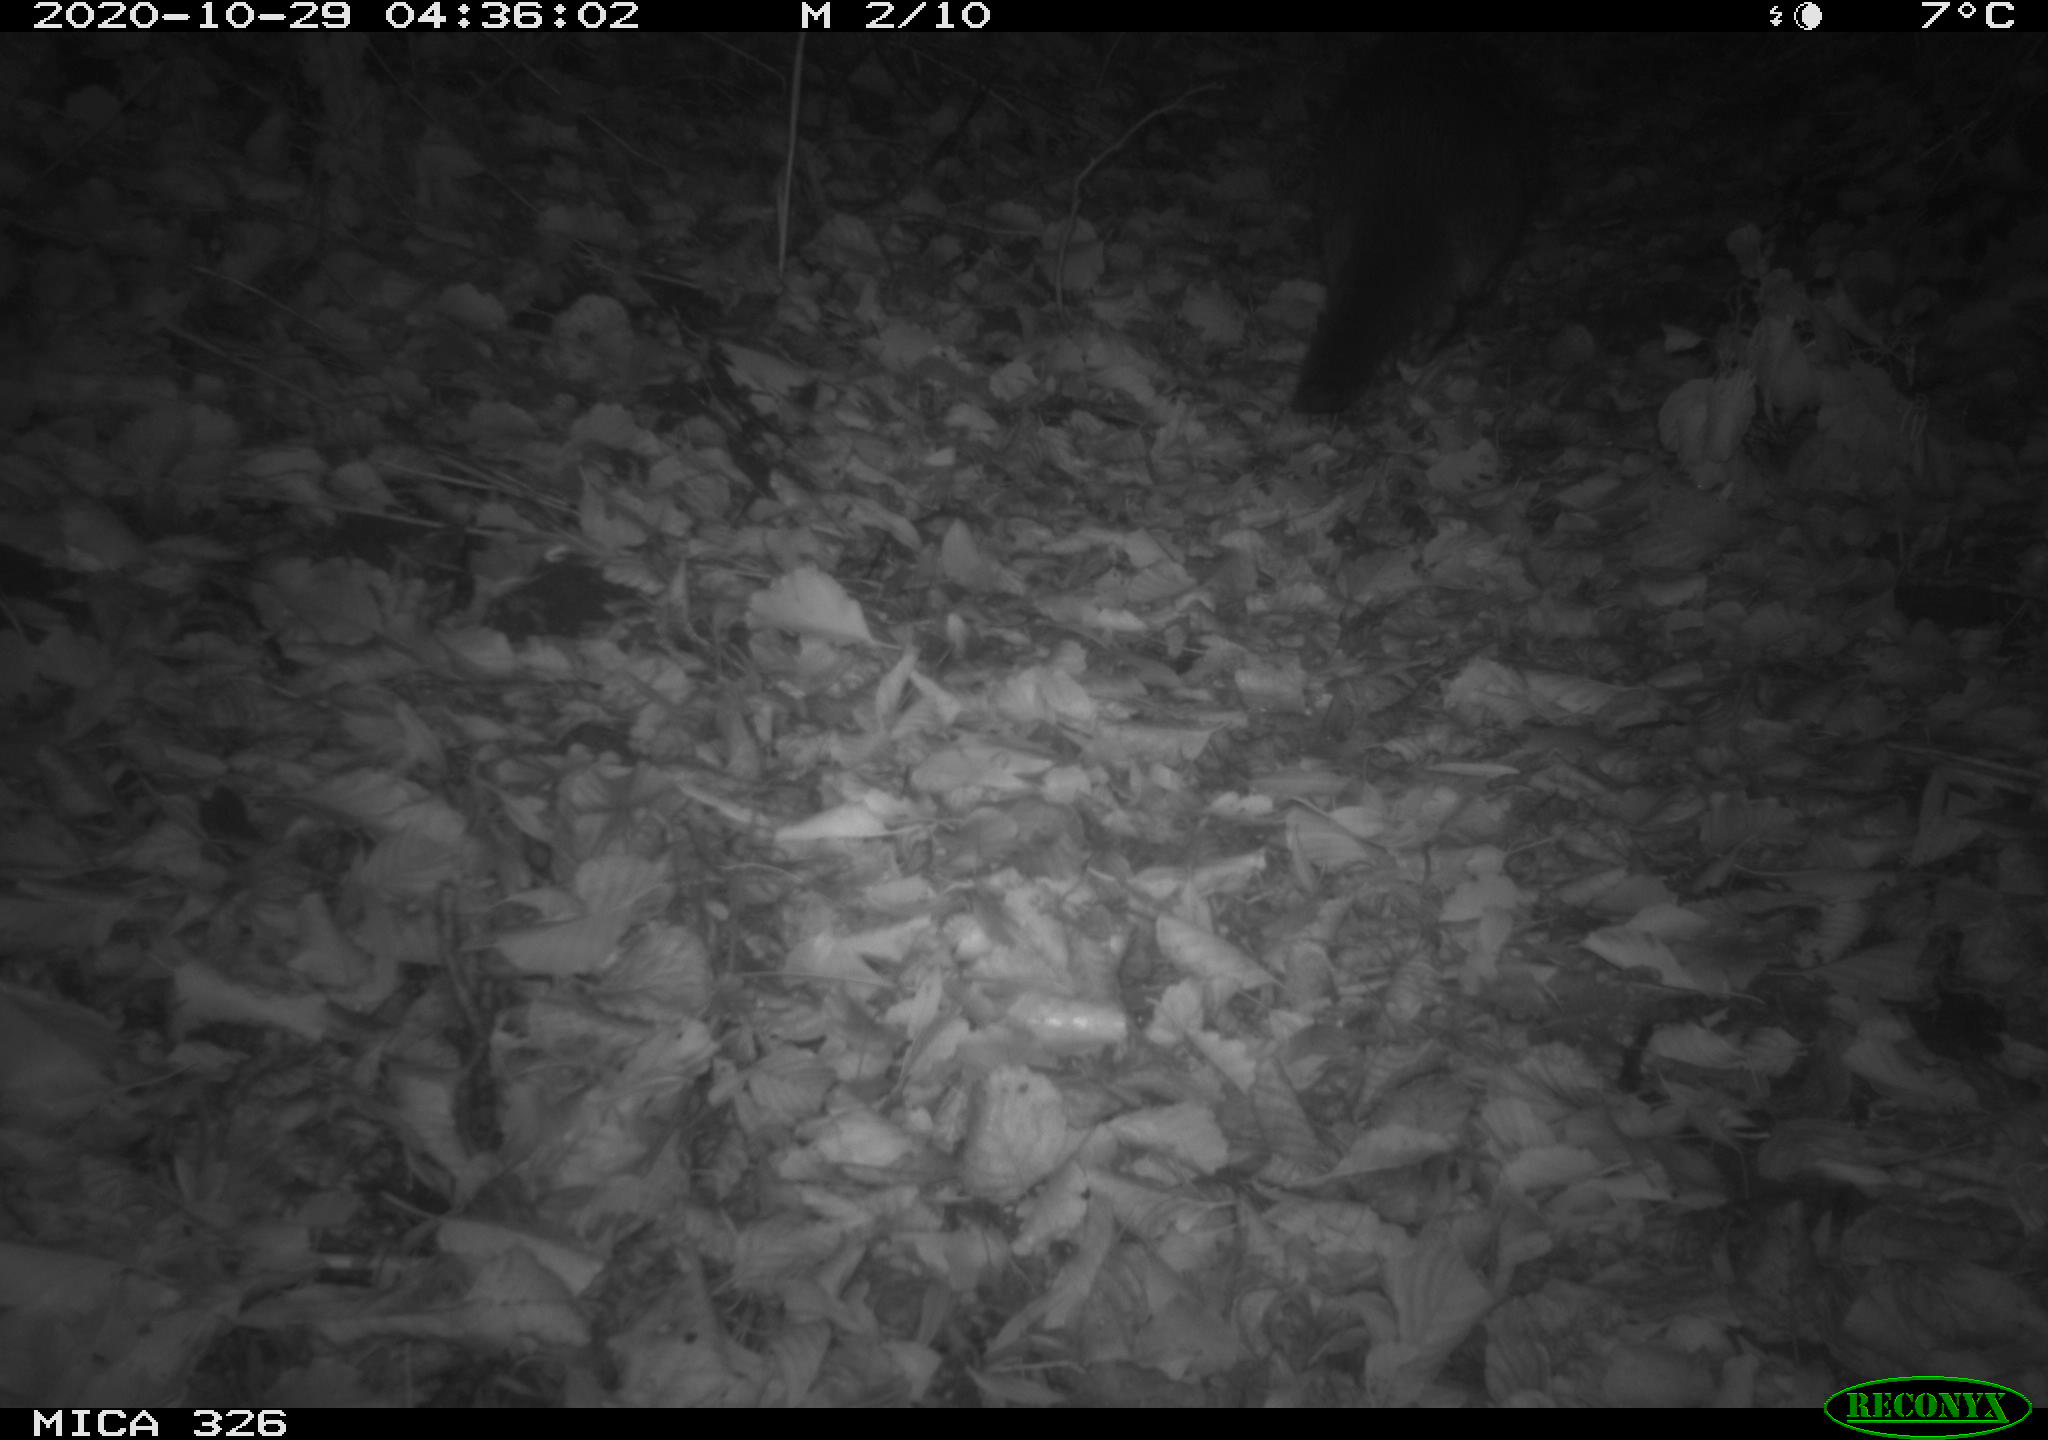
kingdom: Animalia
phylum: Chordata
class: Mammalia
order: Carnivora
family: Mustelidae
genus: Lutra
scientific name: Lutra lutra
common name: European otter
